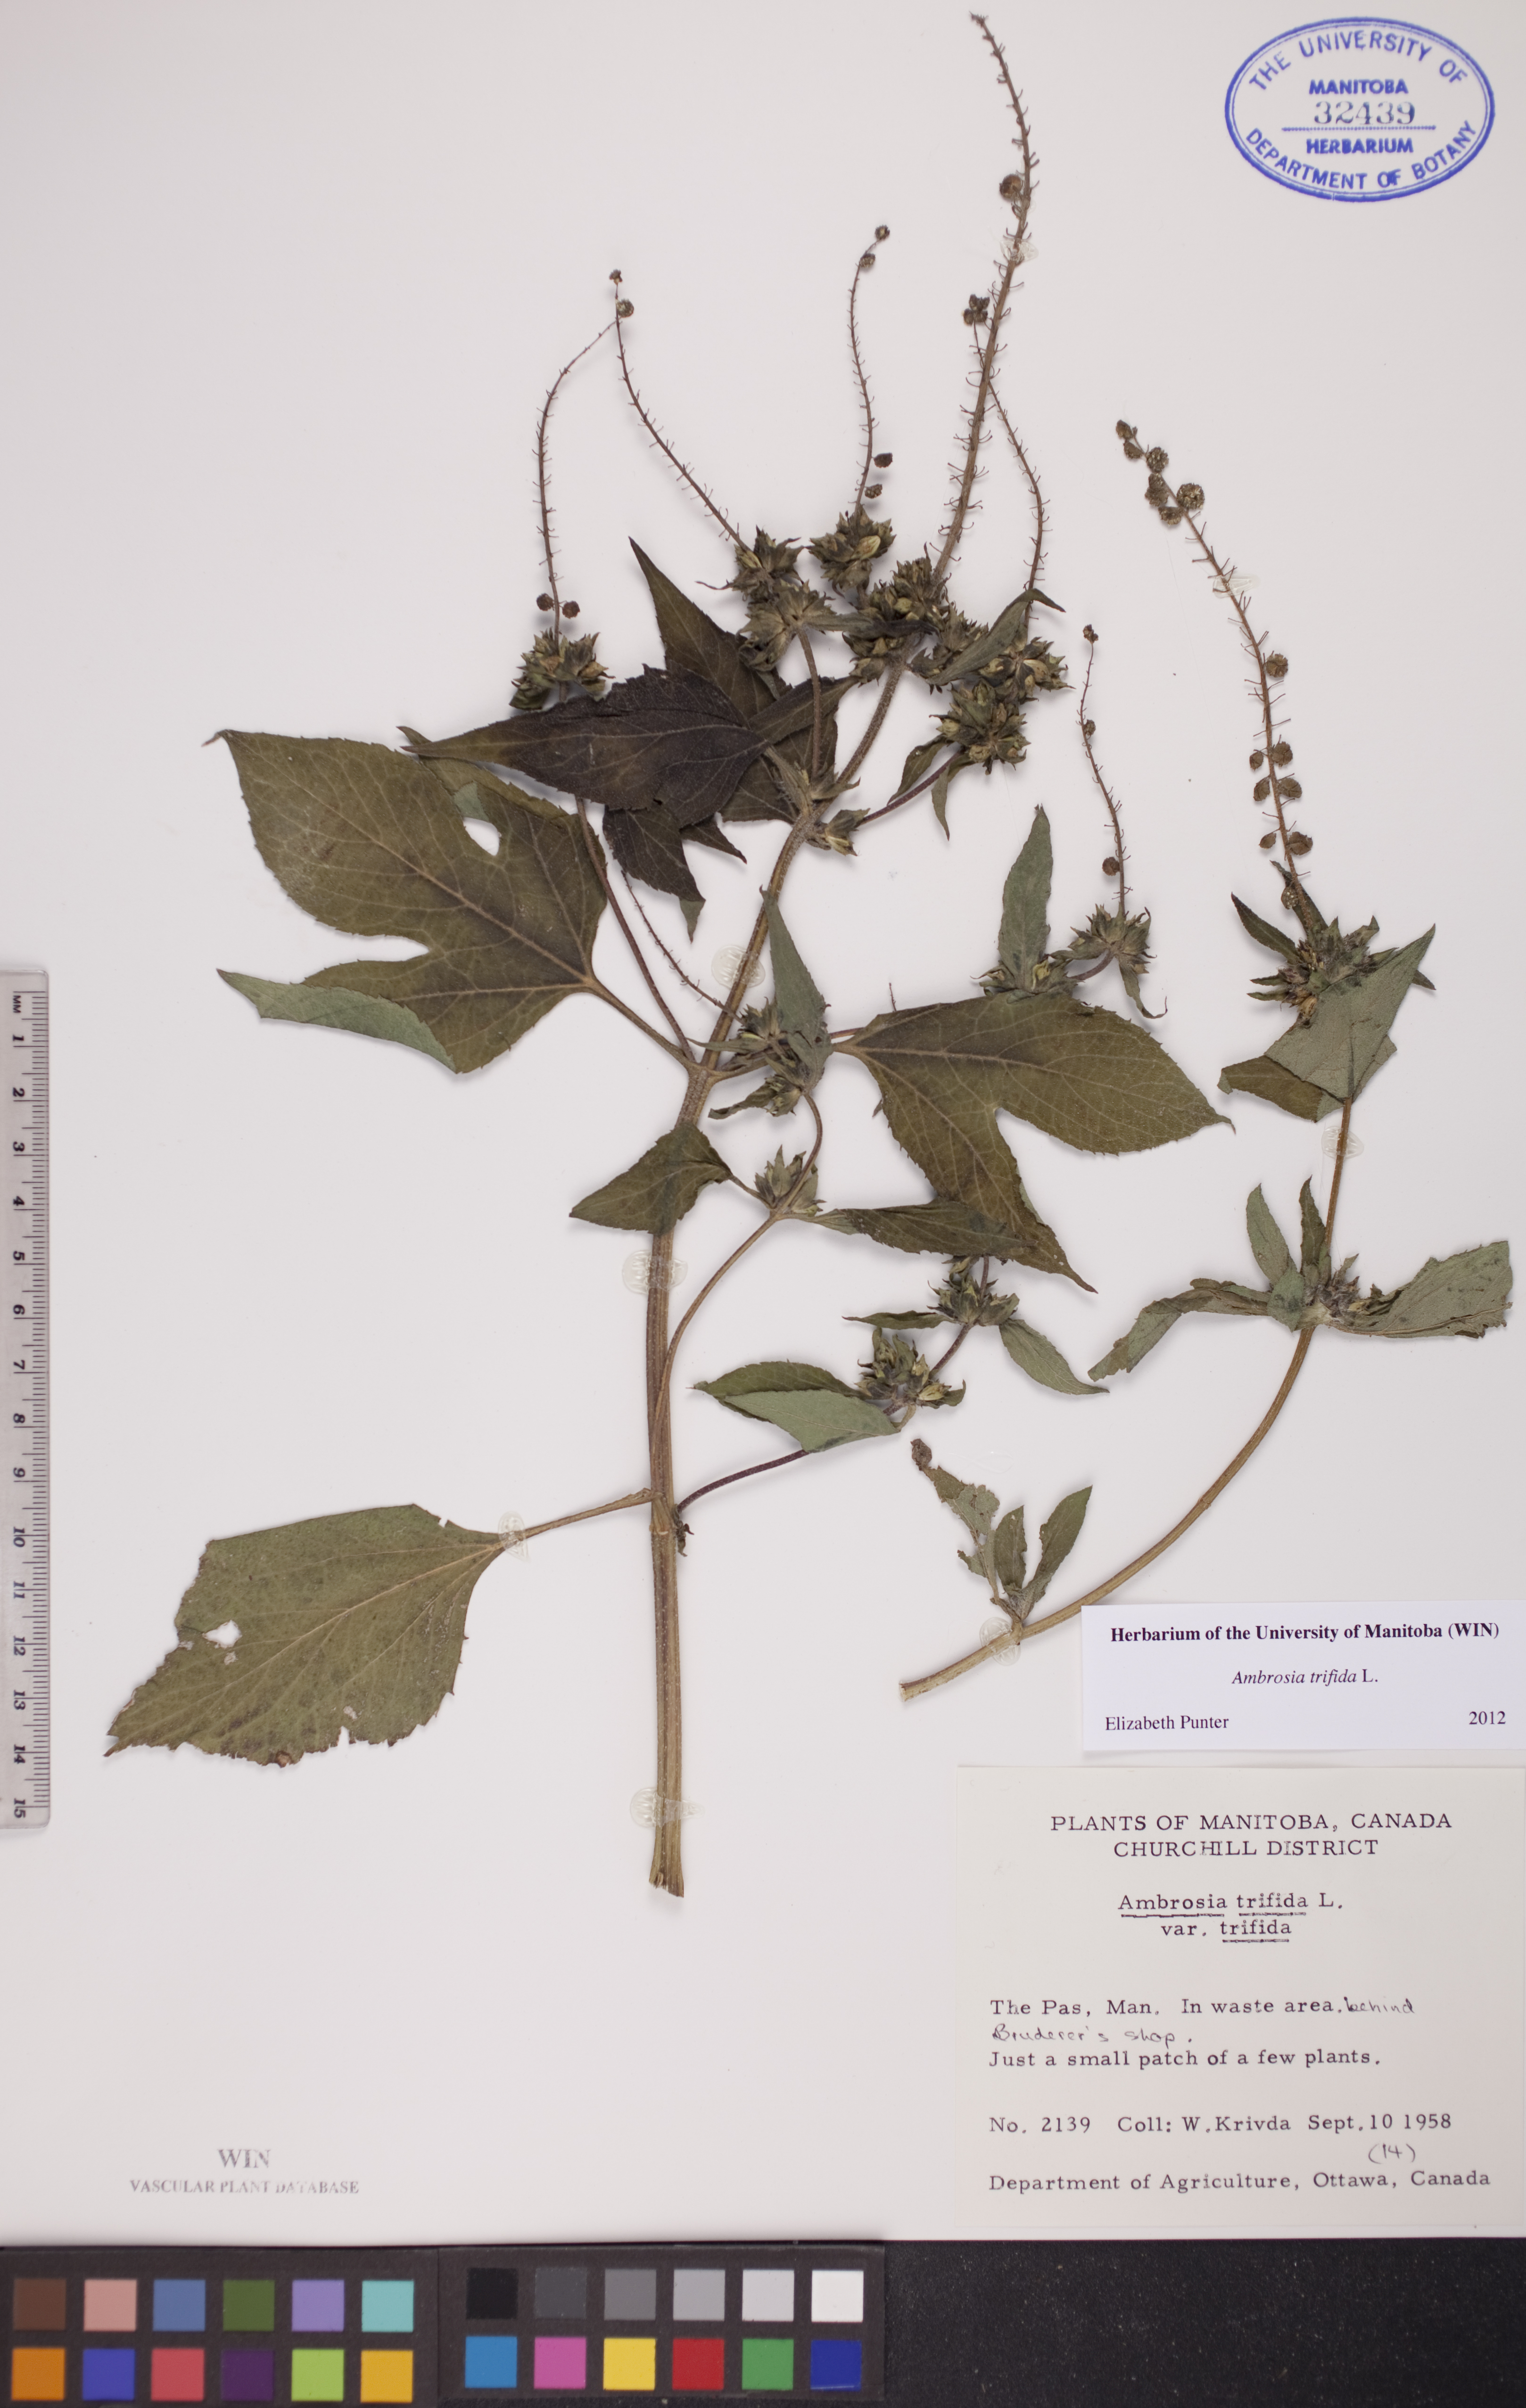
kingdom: Plantae
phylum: Tracheophyta
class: Magnoliopsida
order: Asterales
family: Asteraceae
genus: Ambrosia
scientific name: Ambrosia trifida
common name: Giant ragweed
